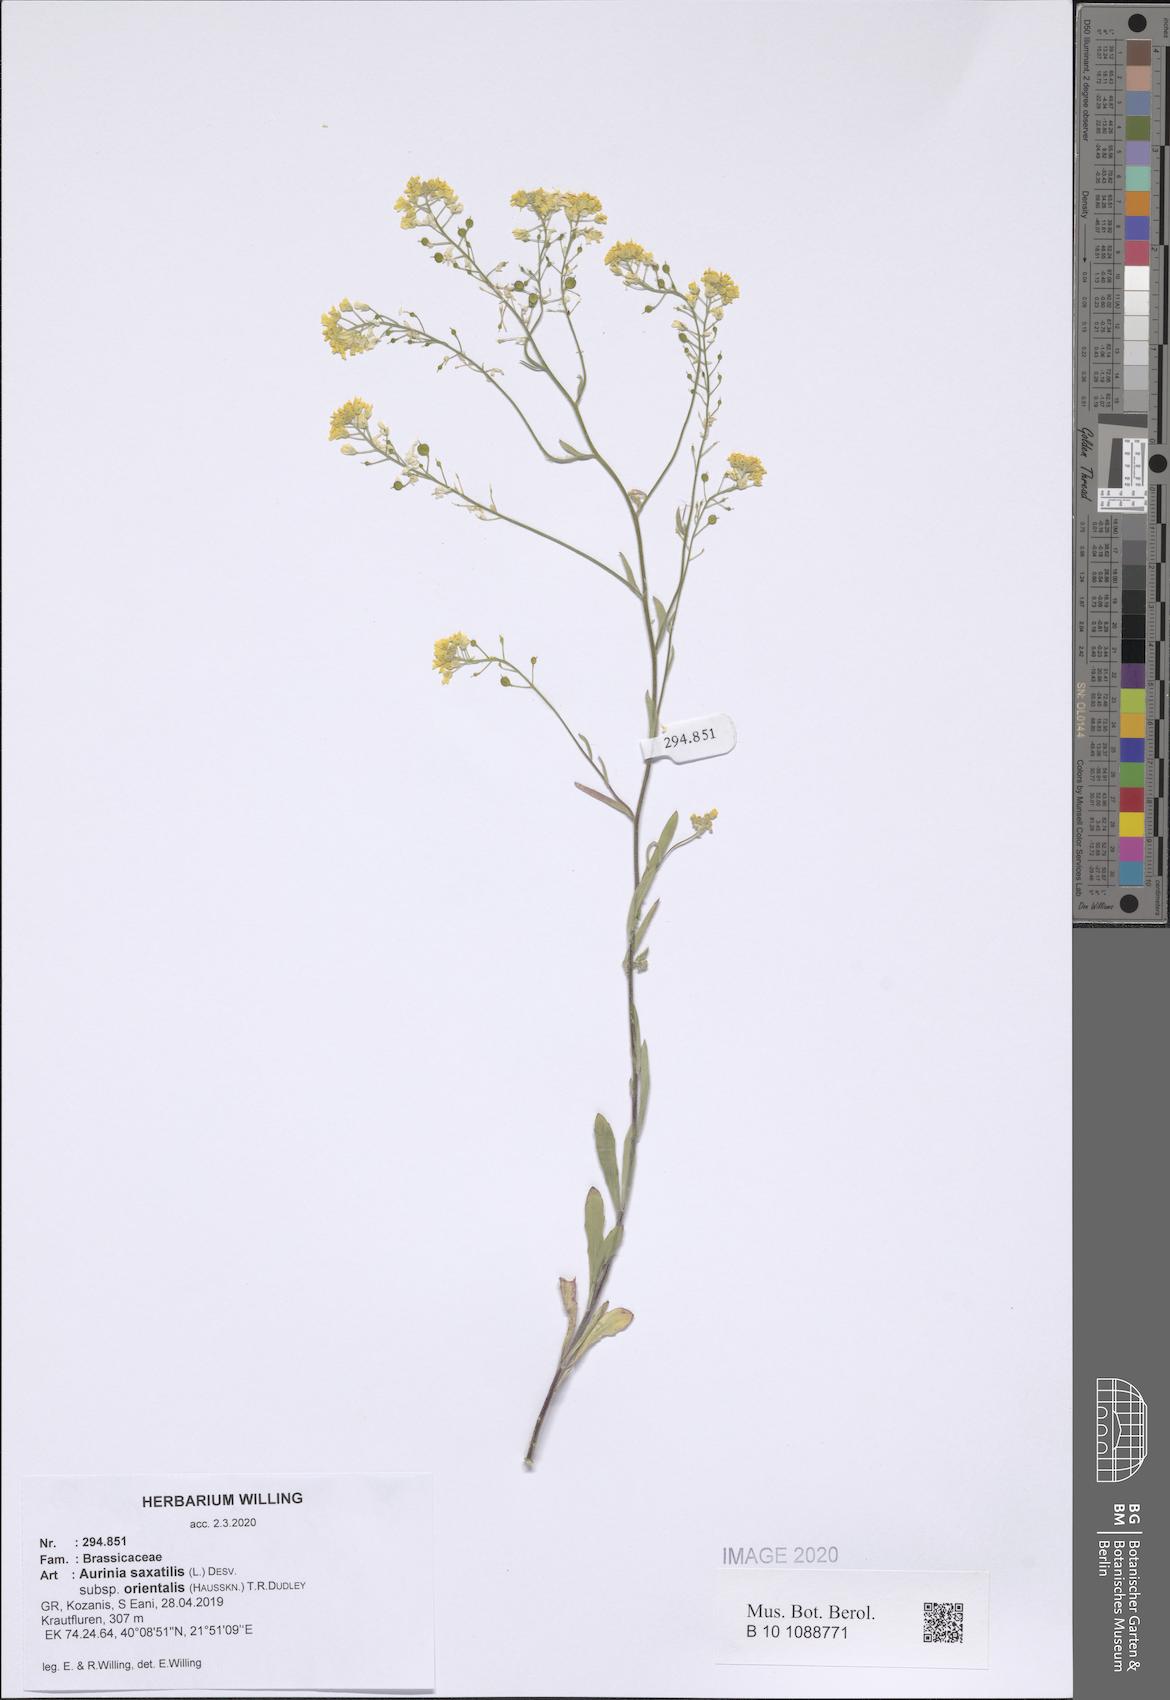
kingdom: Plantae
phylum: Tracheophyta
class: Magnoliopsida
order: Brassicales
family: Brassicaceae
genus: Aurinia
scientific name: Aurinia saxatilis
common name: Golden-tuft alyssum
